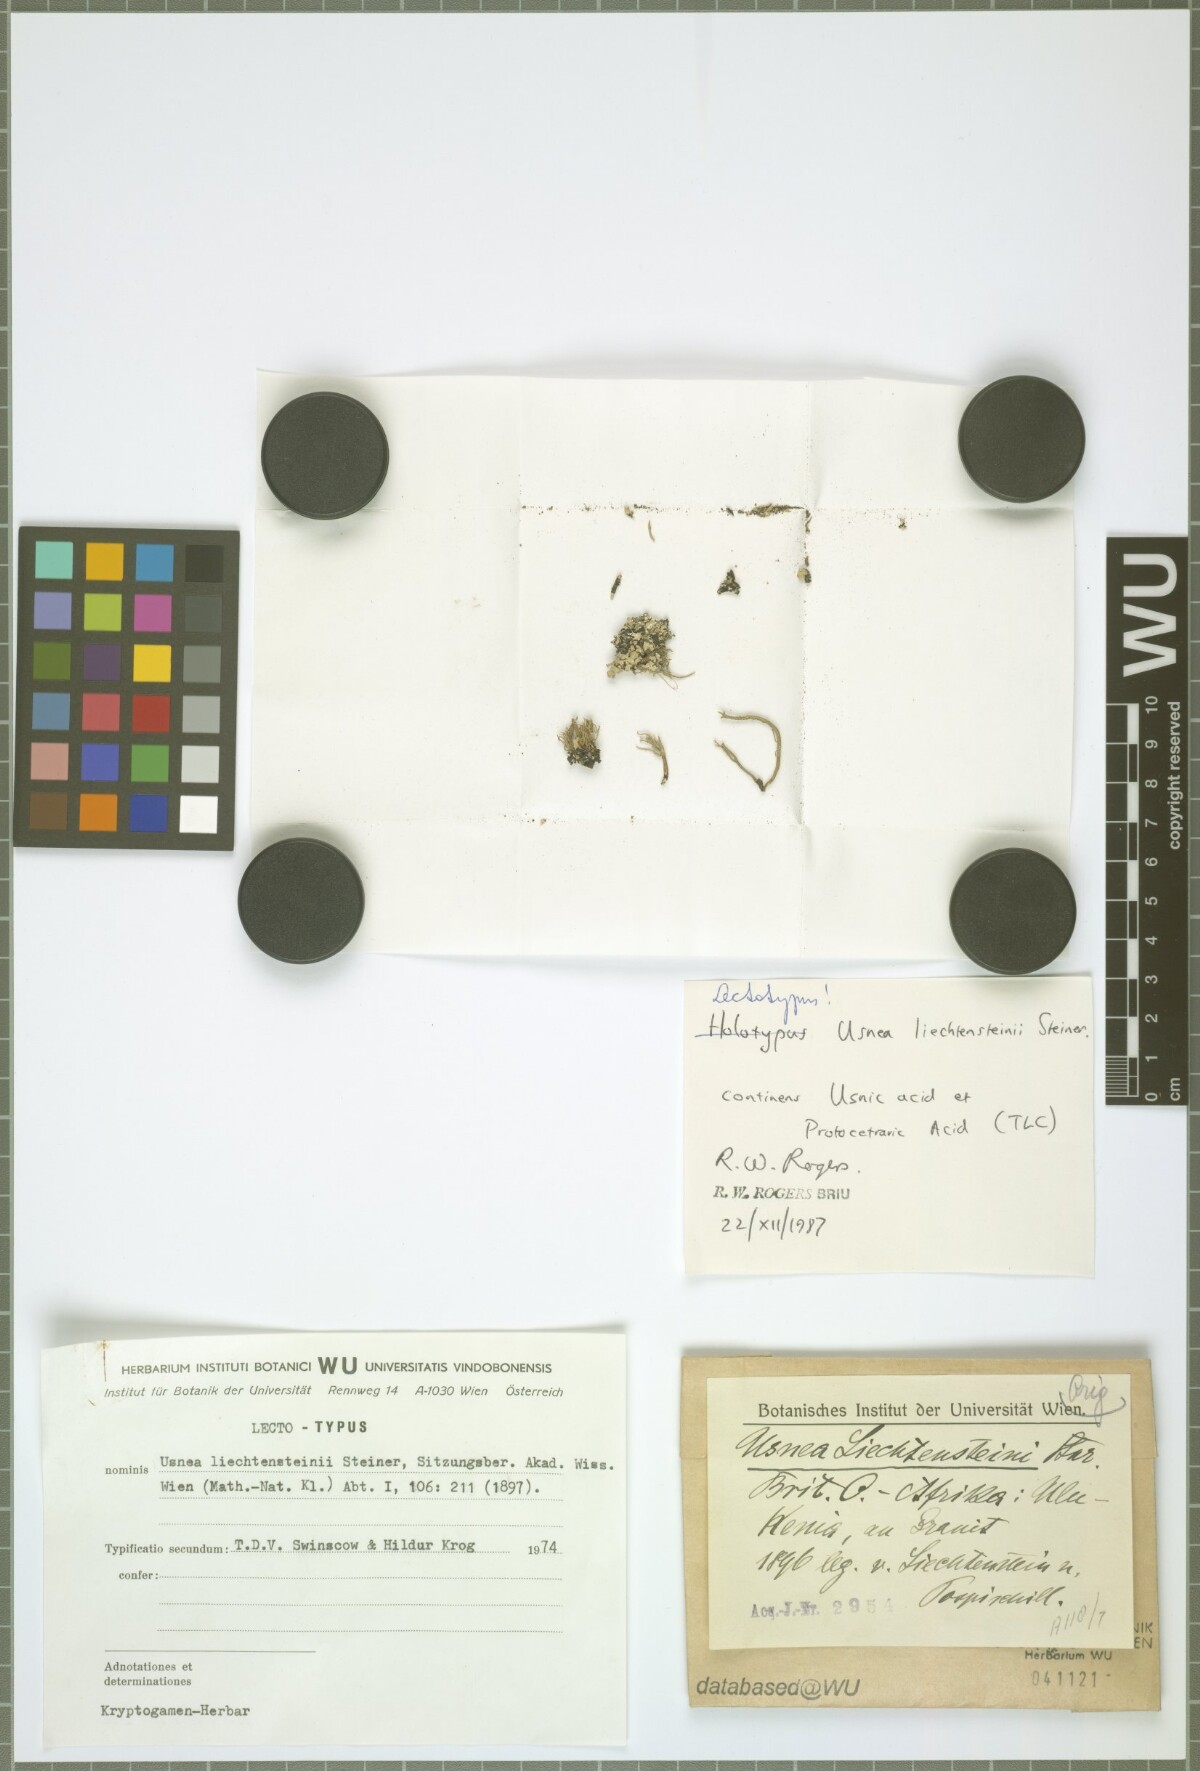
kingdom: Fungi
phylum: Ascomycota
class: Lecanoromycetes
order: Lecanorales
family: Parmeliaceae
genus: Usnea
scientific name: Usnea liechtensteinii
